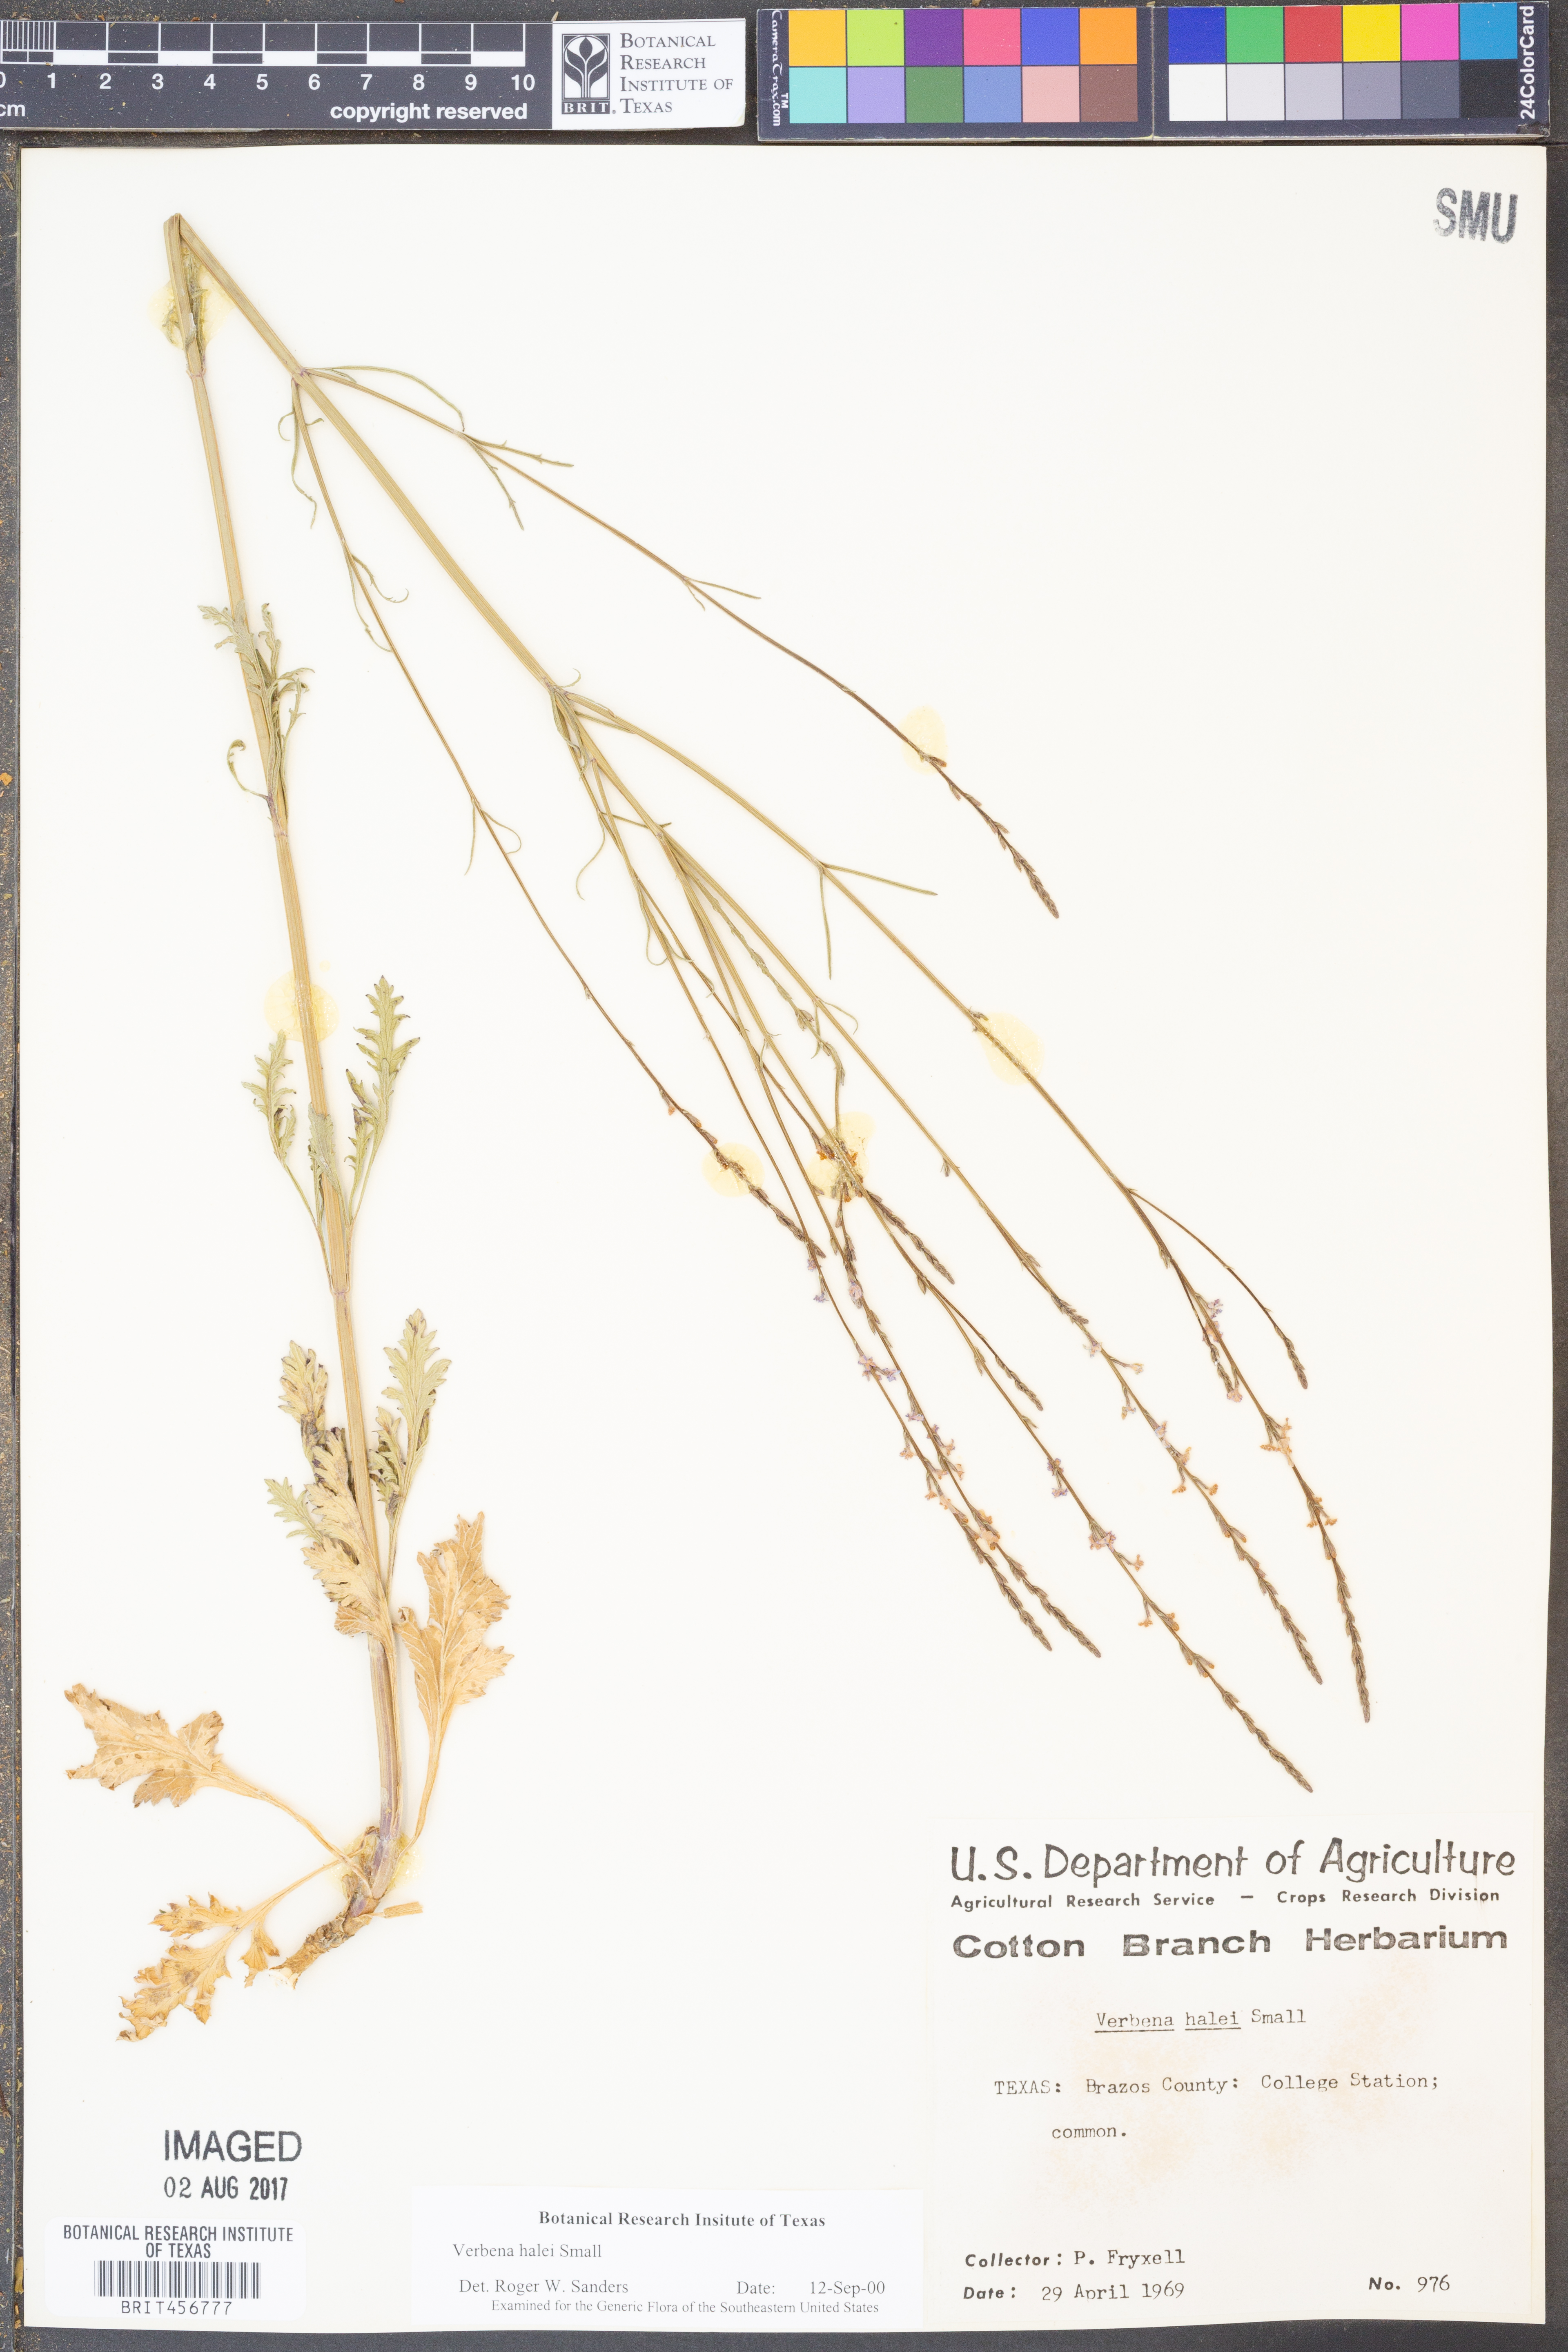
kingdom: Plantae
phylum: Tracheophyta
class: Magnoliopsida
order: Lamiales
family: Verbenaceae
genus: Verbena
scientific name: Verbena halei
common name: Texas vervain
